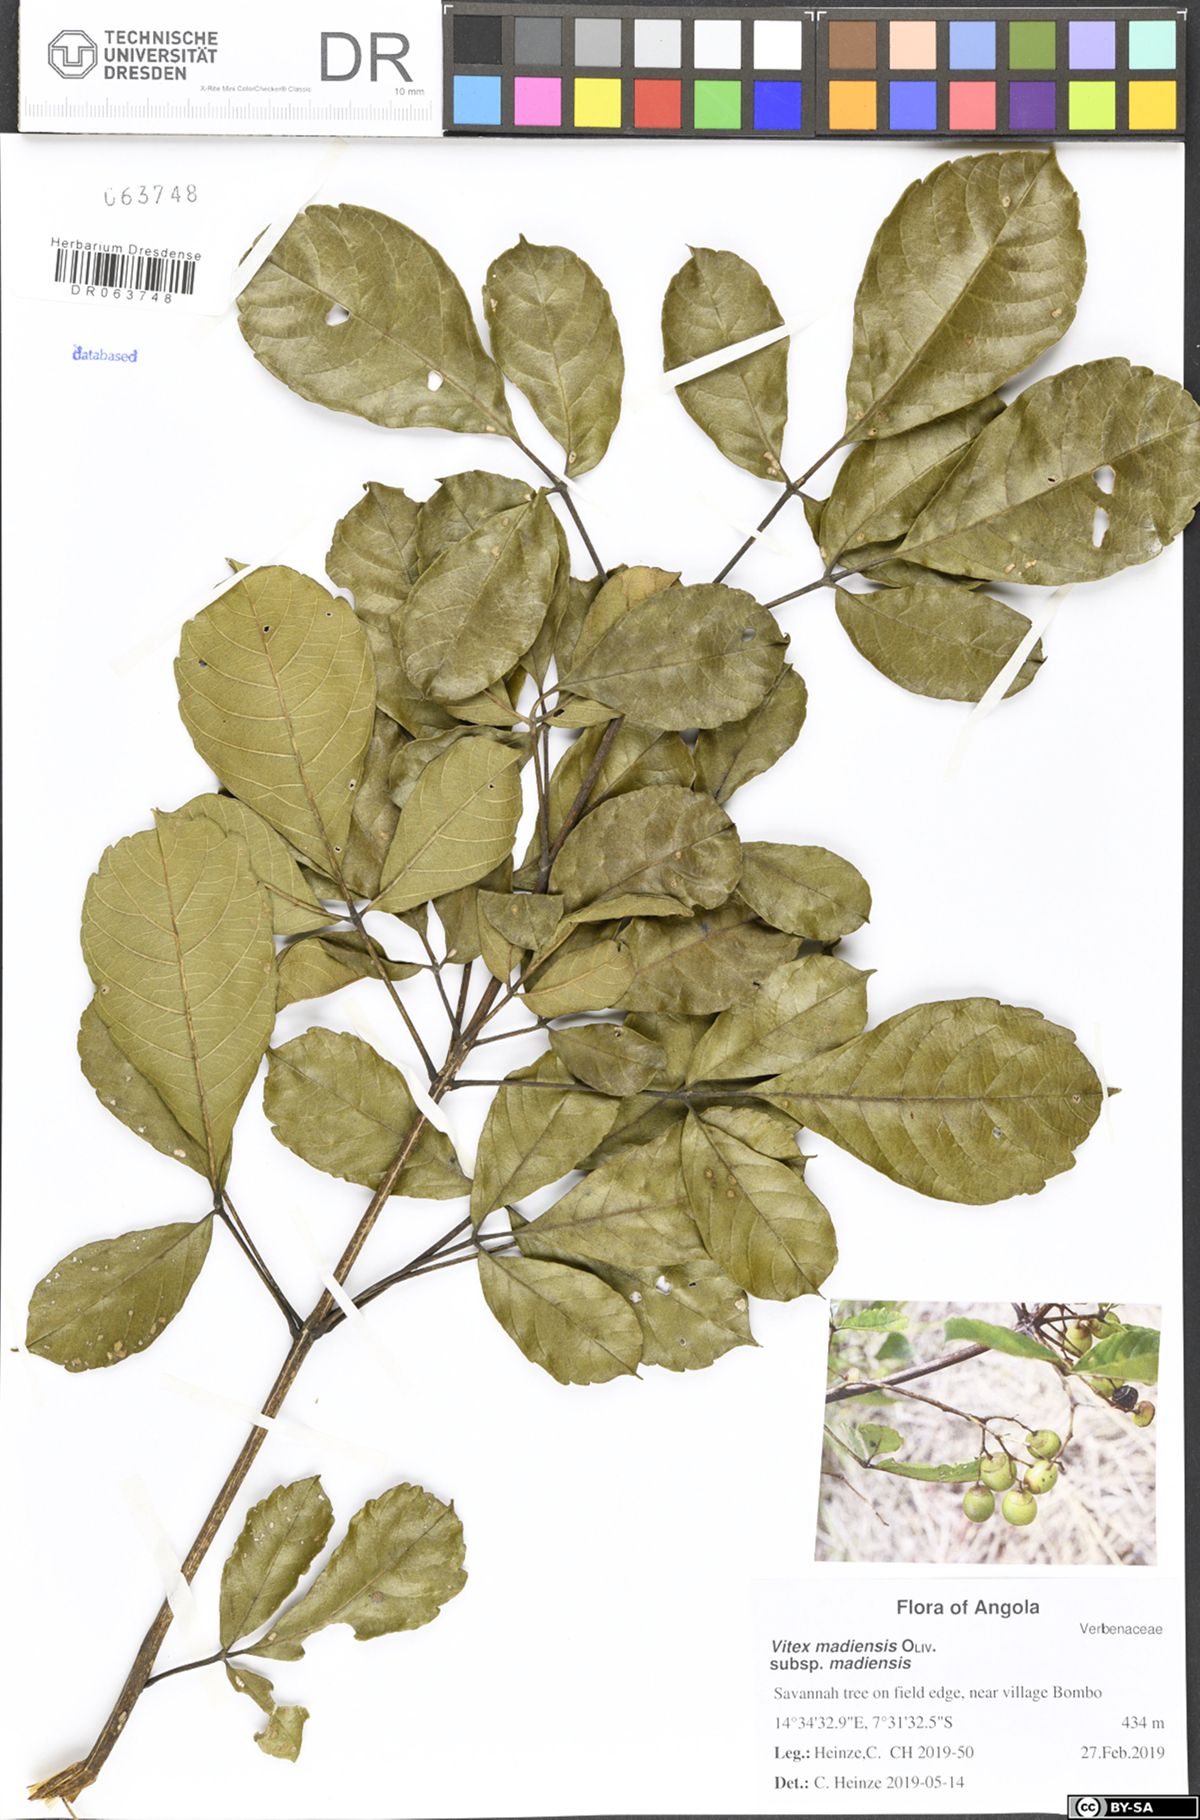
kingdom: Plantae
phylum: Tracheophyta
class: Magnoliopsida
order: Lamiales
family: Lamiaceae
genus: Vitex
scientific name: Vitex madiensis
